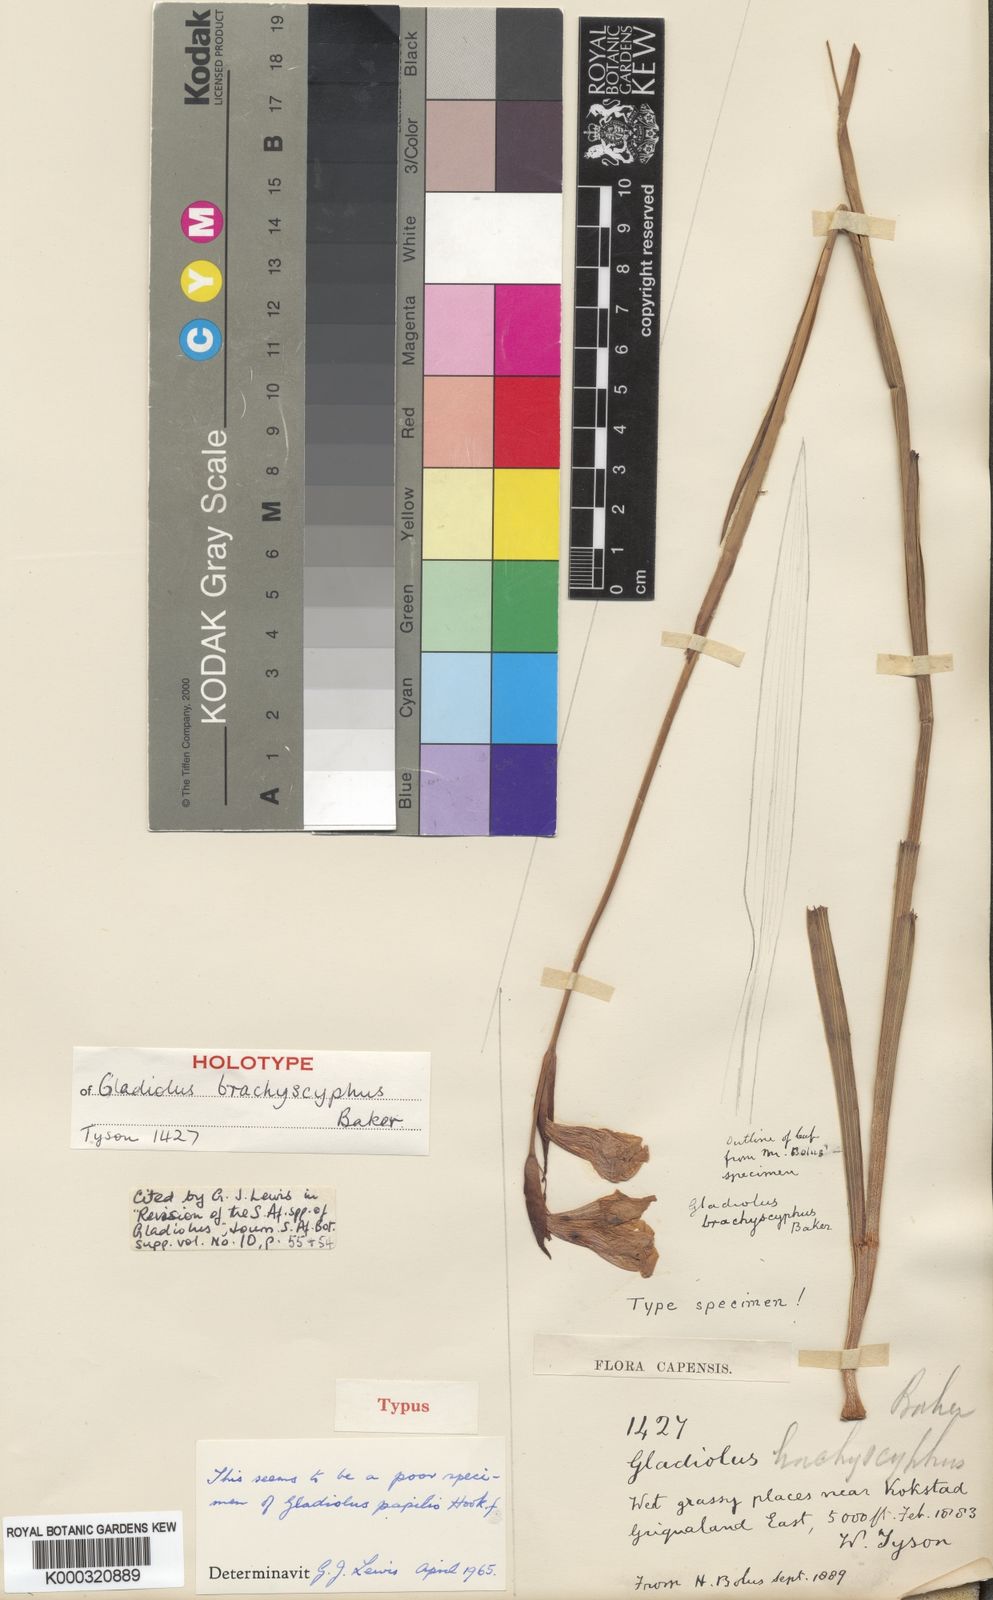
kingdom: Plantae
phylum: Tracheophyta
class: Liliopsida
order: Asparagales
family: Iridaceae
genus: Gladiolus
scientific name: Gladiolus papilio
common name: Goldblotch gladiolus
